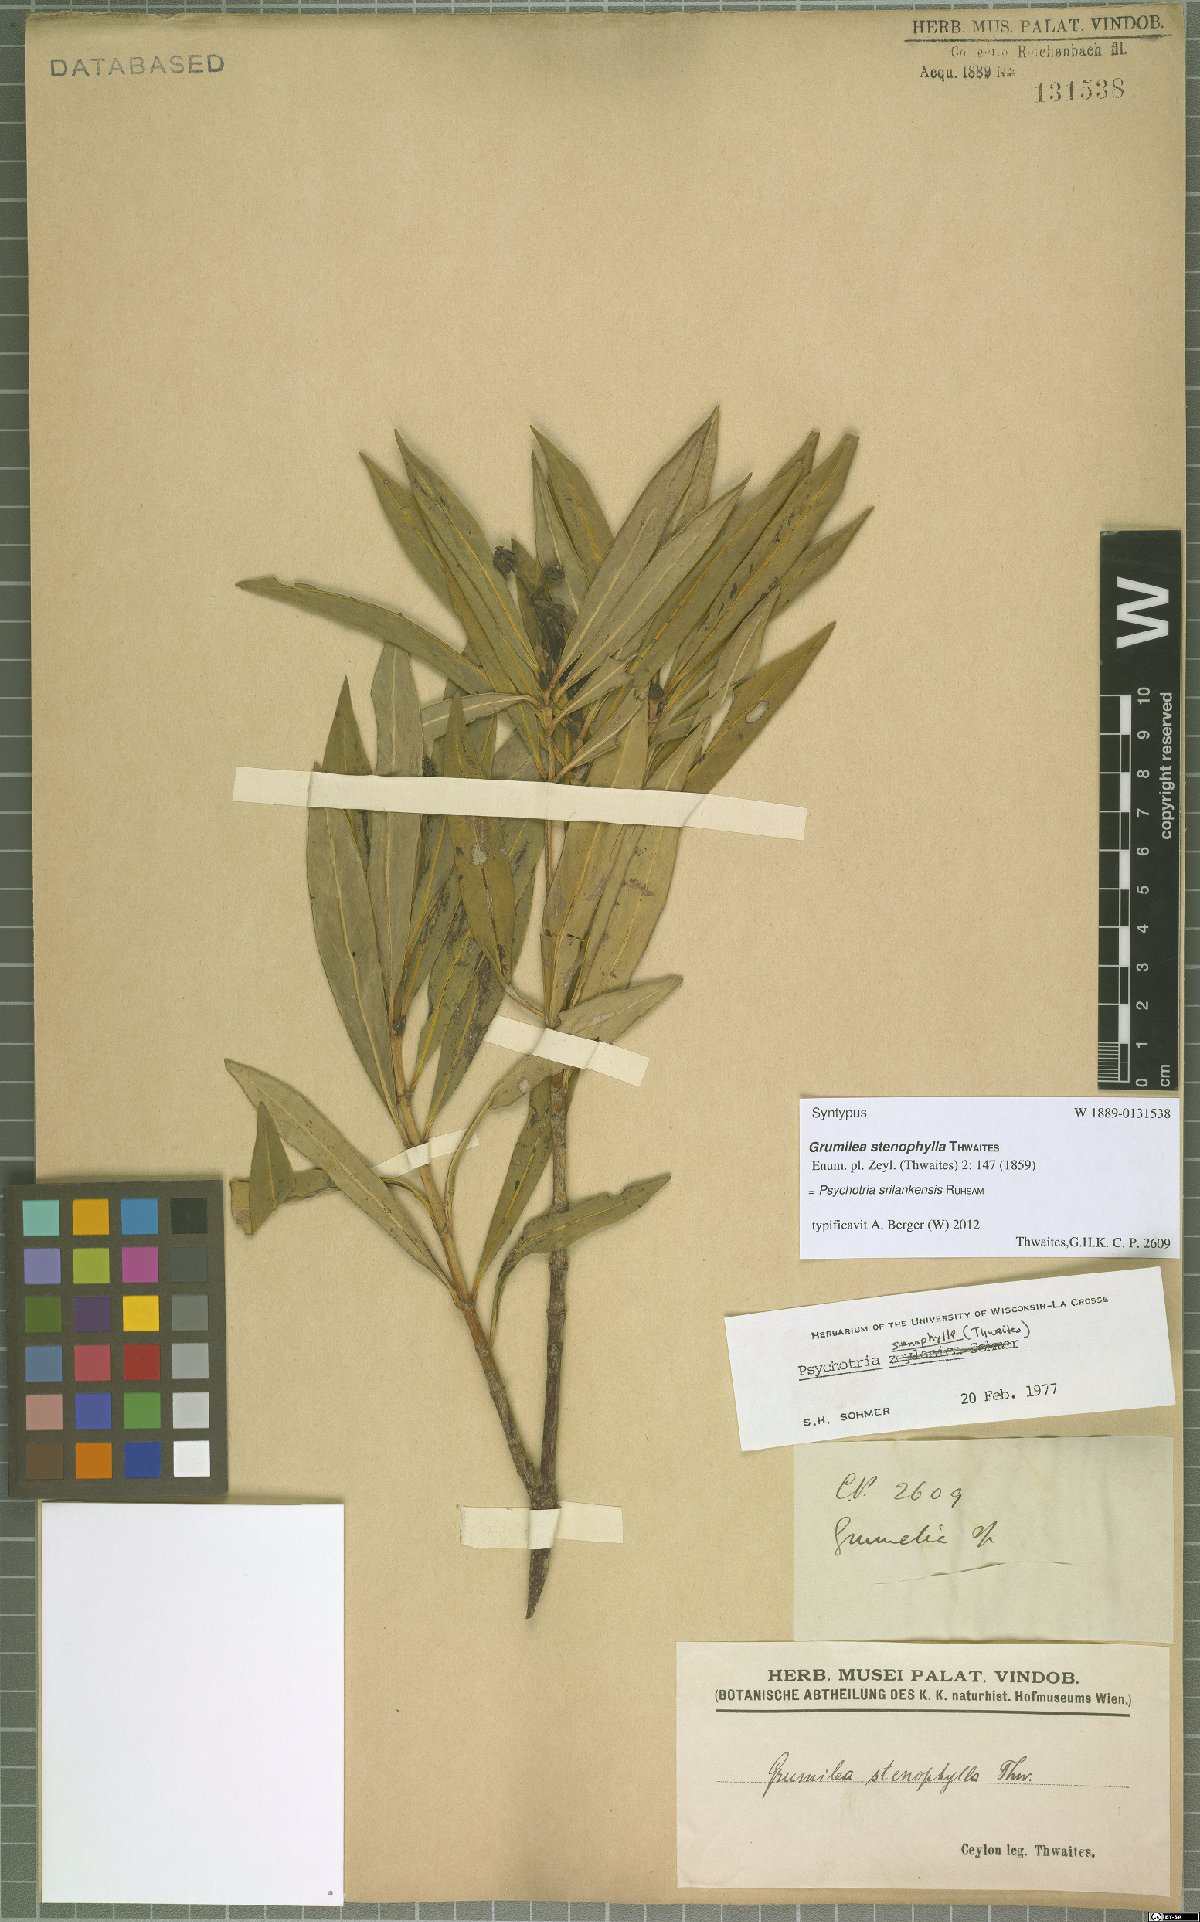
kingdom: Plantae
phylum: Tracheophyta
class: Magnoliopsida
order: Gentianales
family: Rubiaceae
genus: Psychotria
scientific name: Psychotria srilankensis
